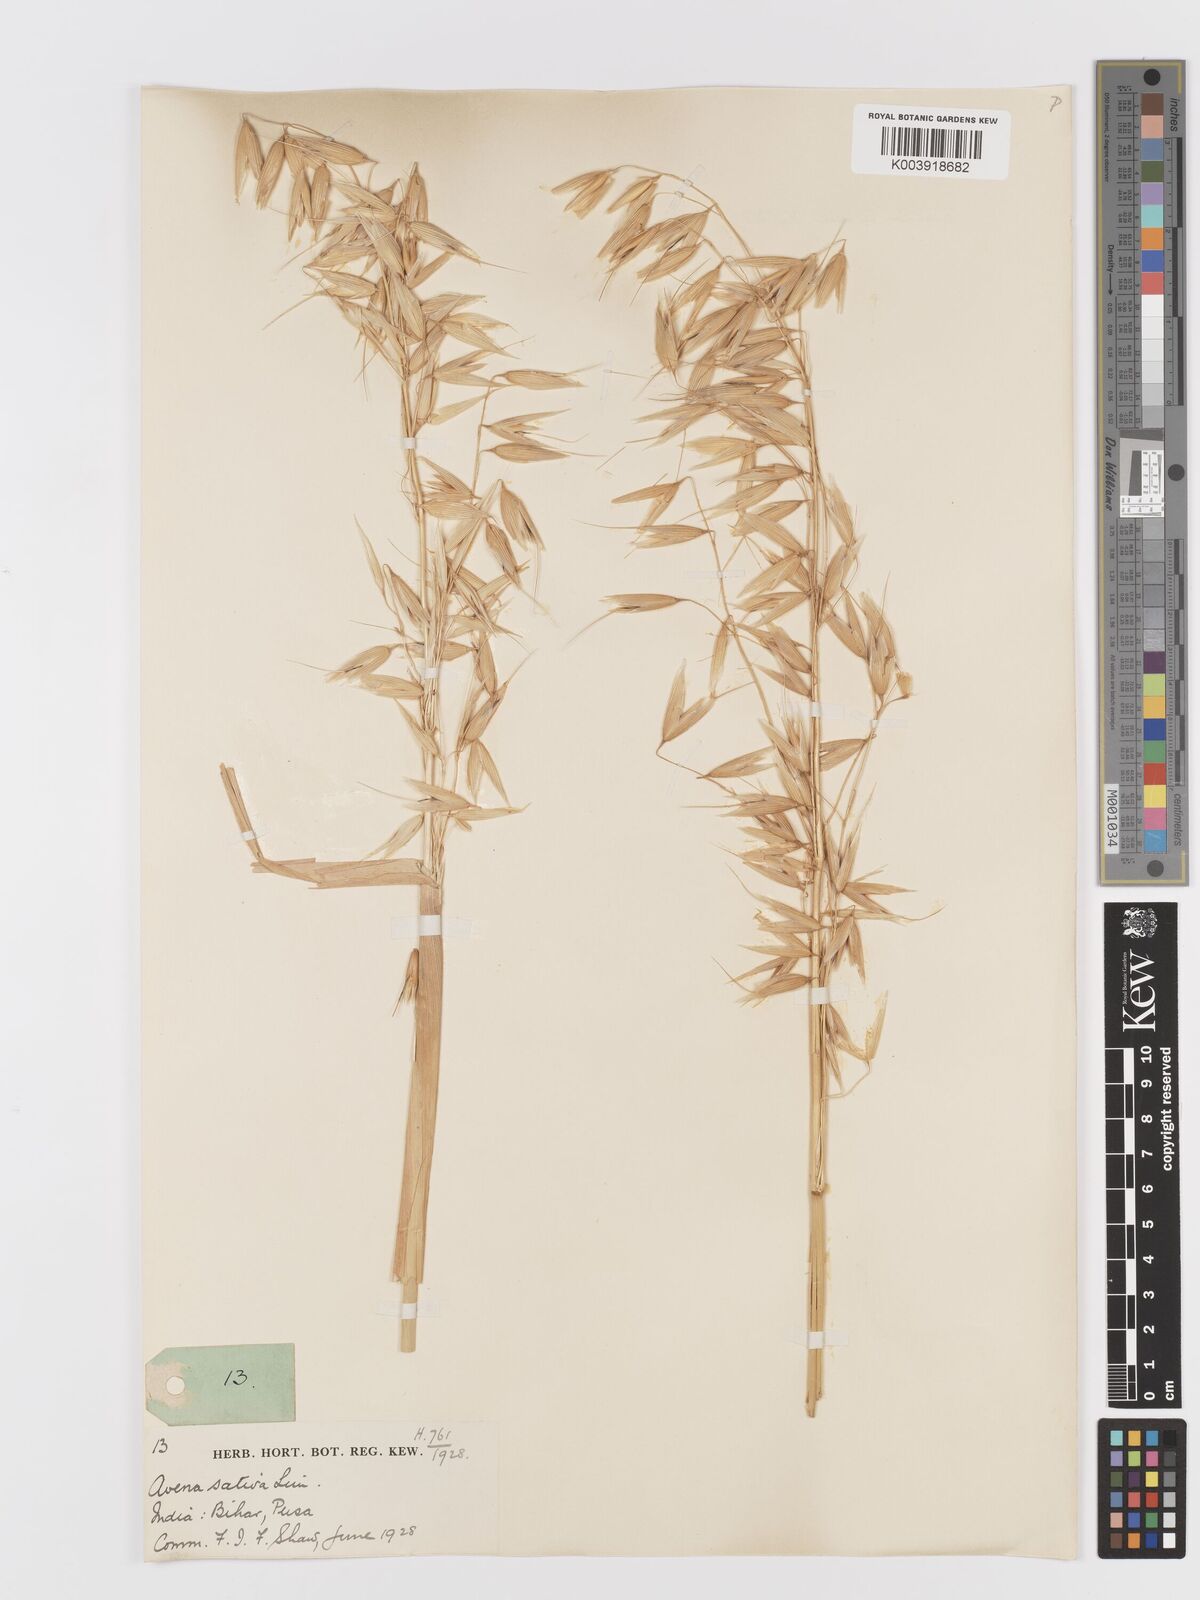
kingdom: Plantae
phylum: Tracheophyta
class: Liliopsida
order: Poales
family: Poaceae
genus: Avena
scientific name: Avena sativa
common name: Oat
